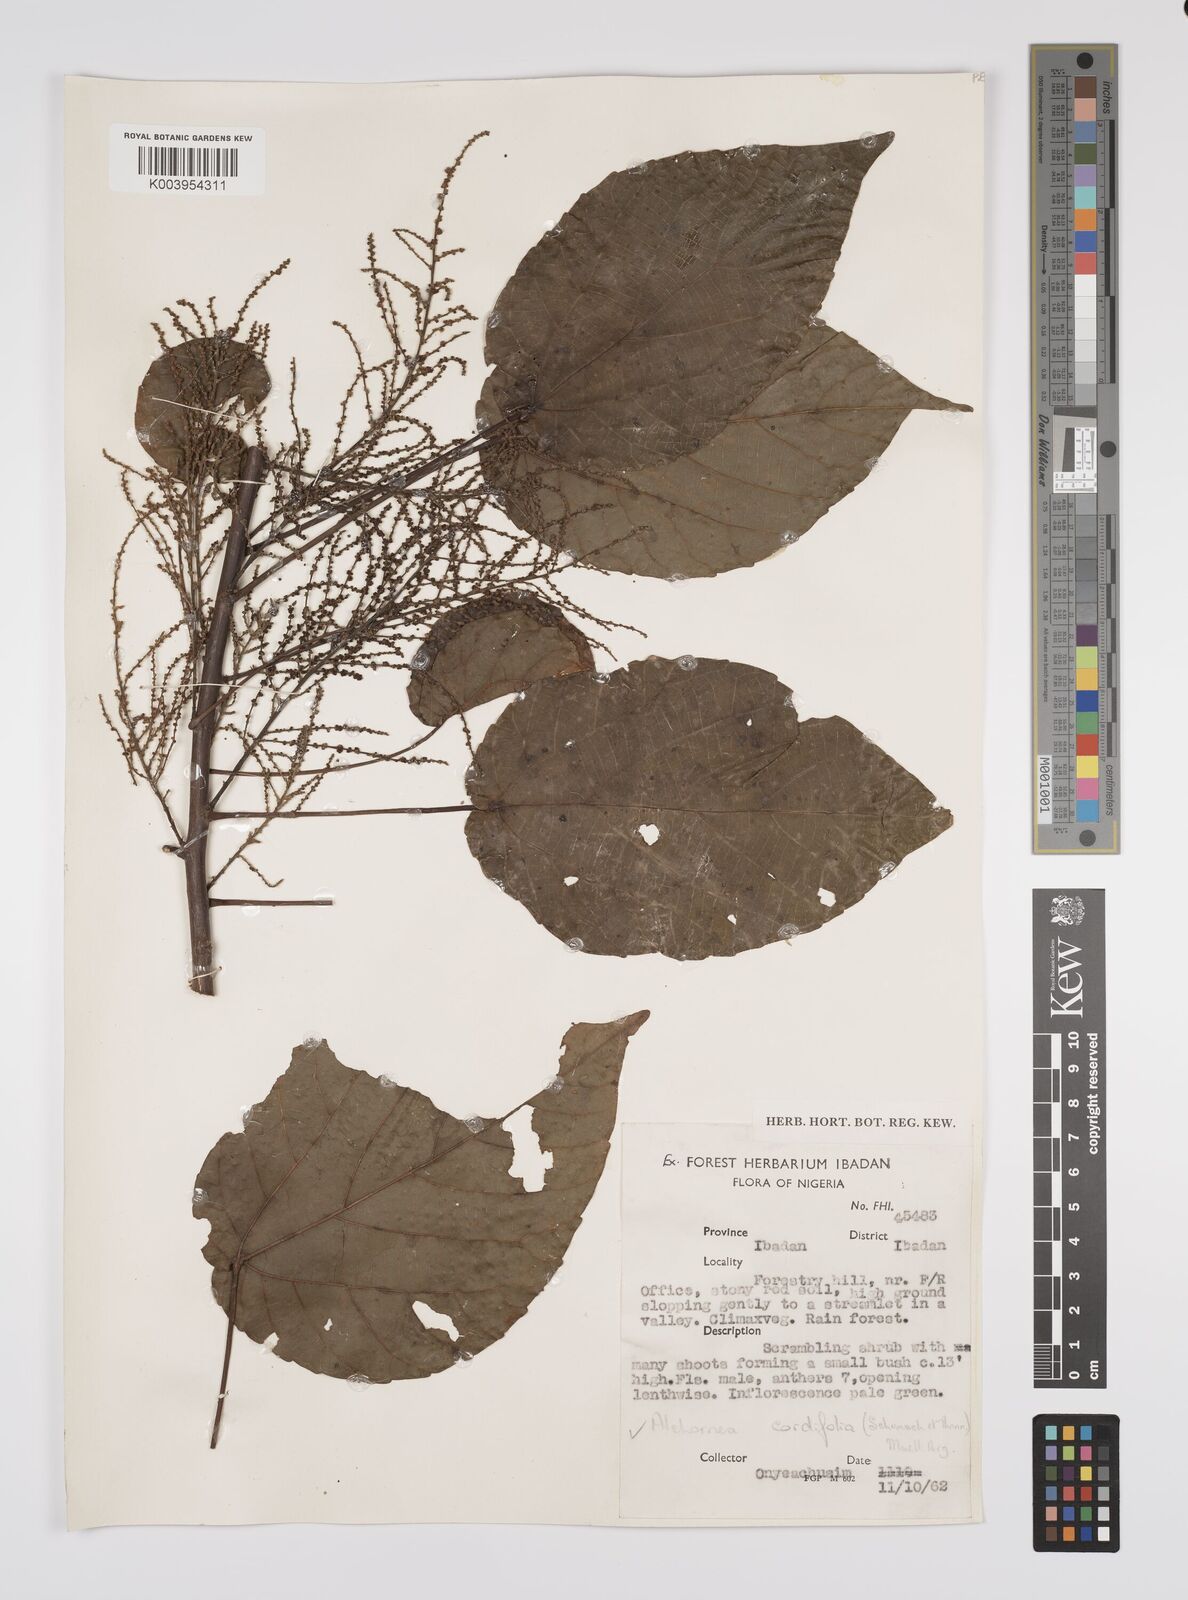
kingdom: Plantae
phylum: Tracheophyta
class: Magnoliopsida
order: Malpighiales
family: Euphorbiaceae
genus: Alchornea
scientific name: Alchornea cordifolia
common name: Christmasbush
